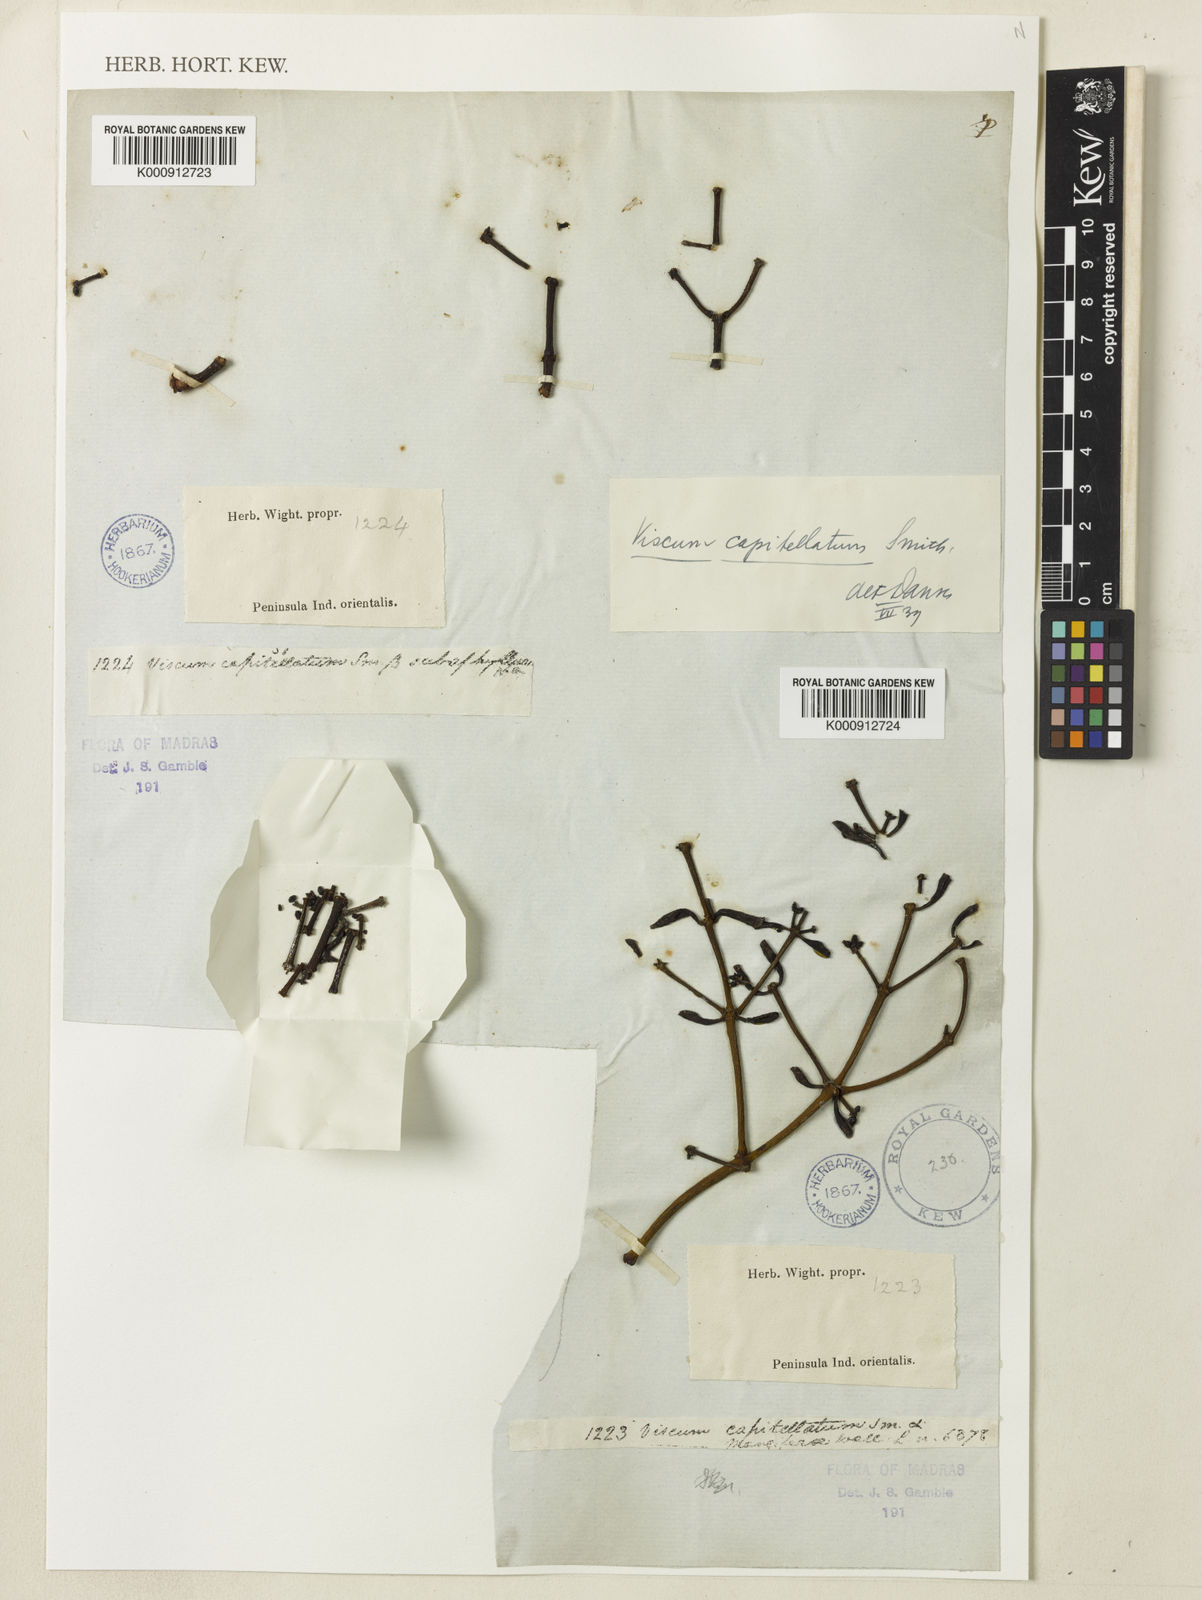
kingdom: Plantae
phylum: Tracheophyta
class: Magnoliopsida
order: Santalales
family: Viscaceae
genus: Viscum
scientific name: Viscum capitellatum
